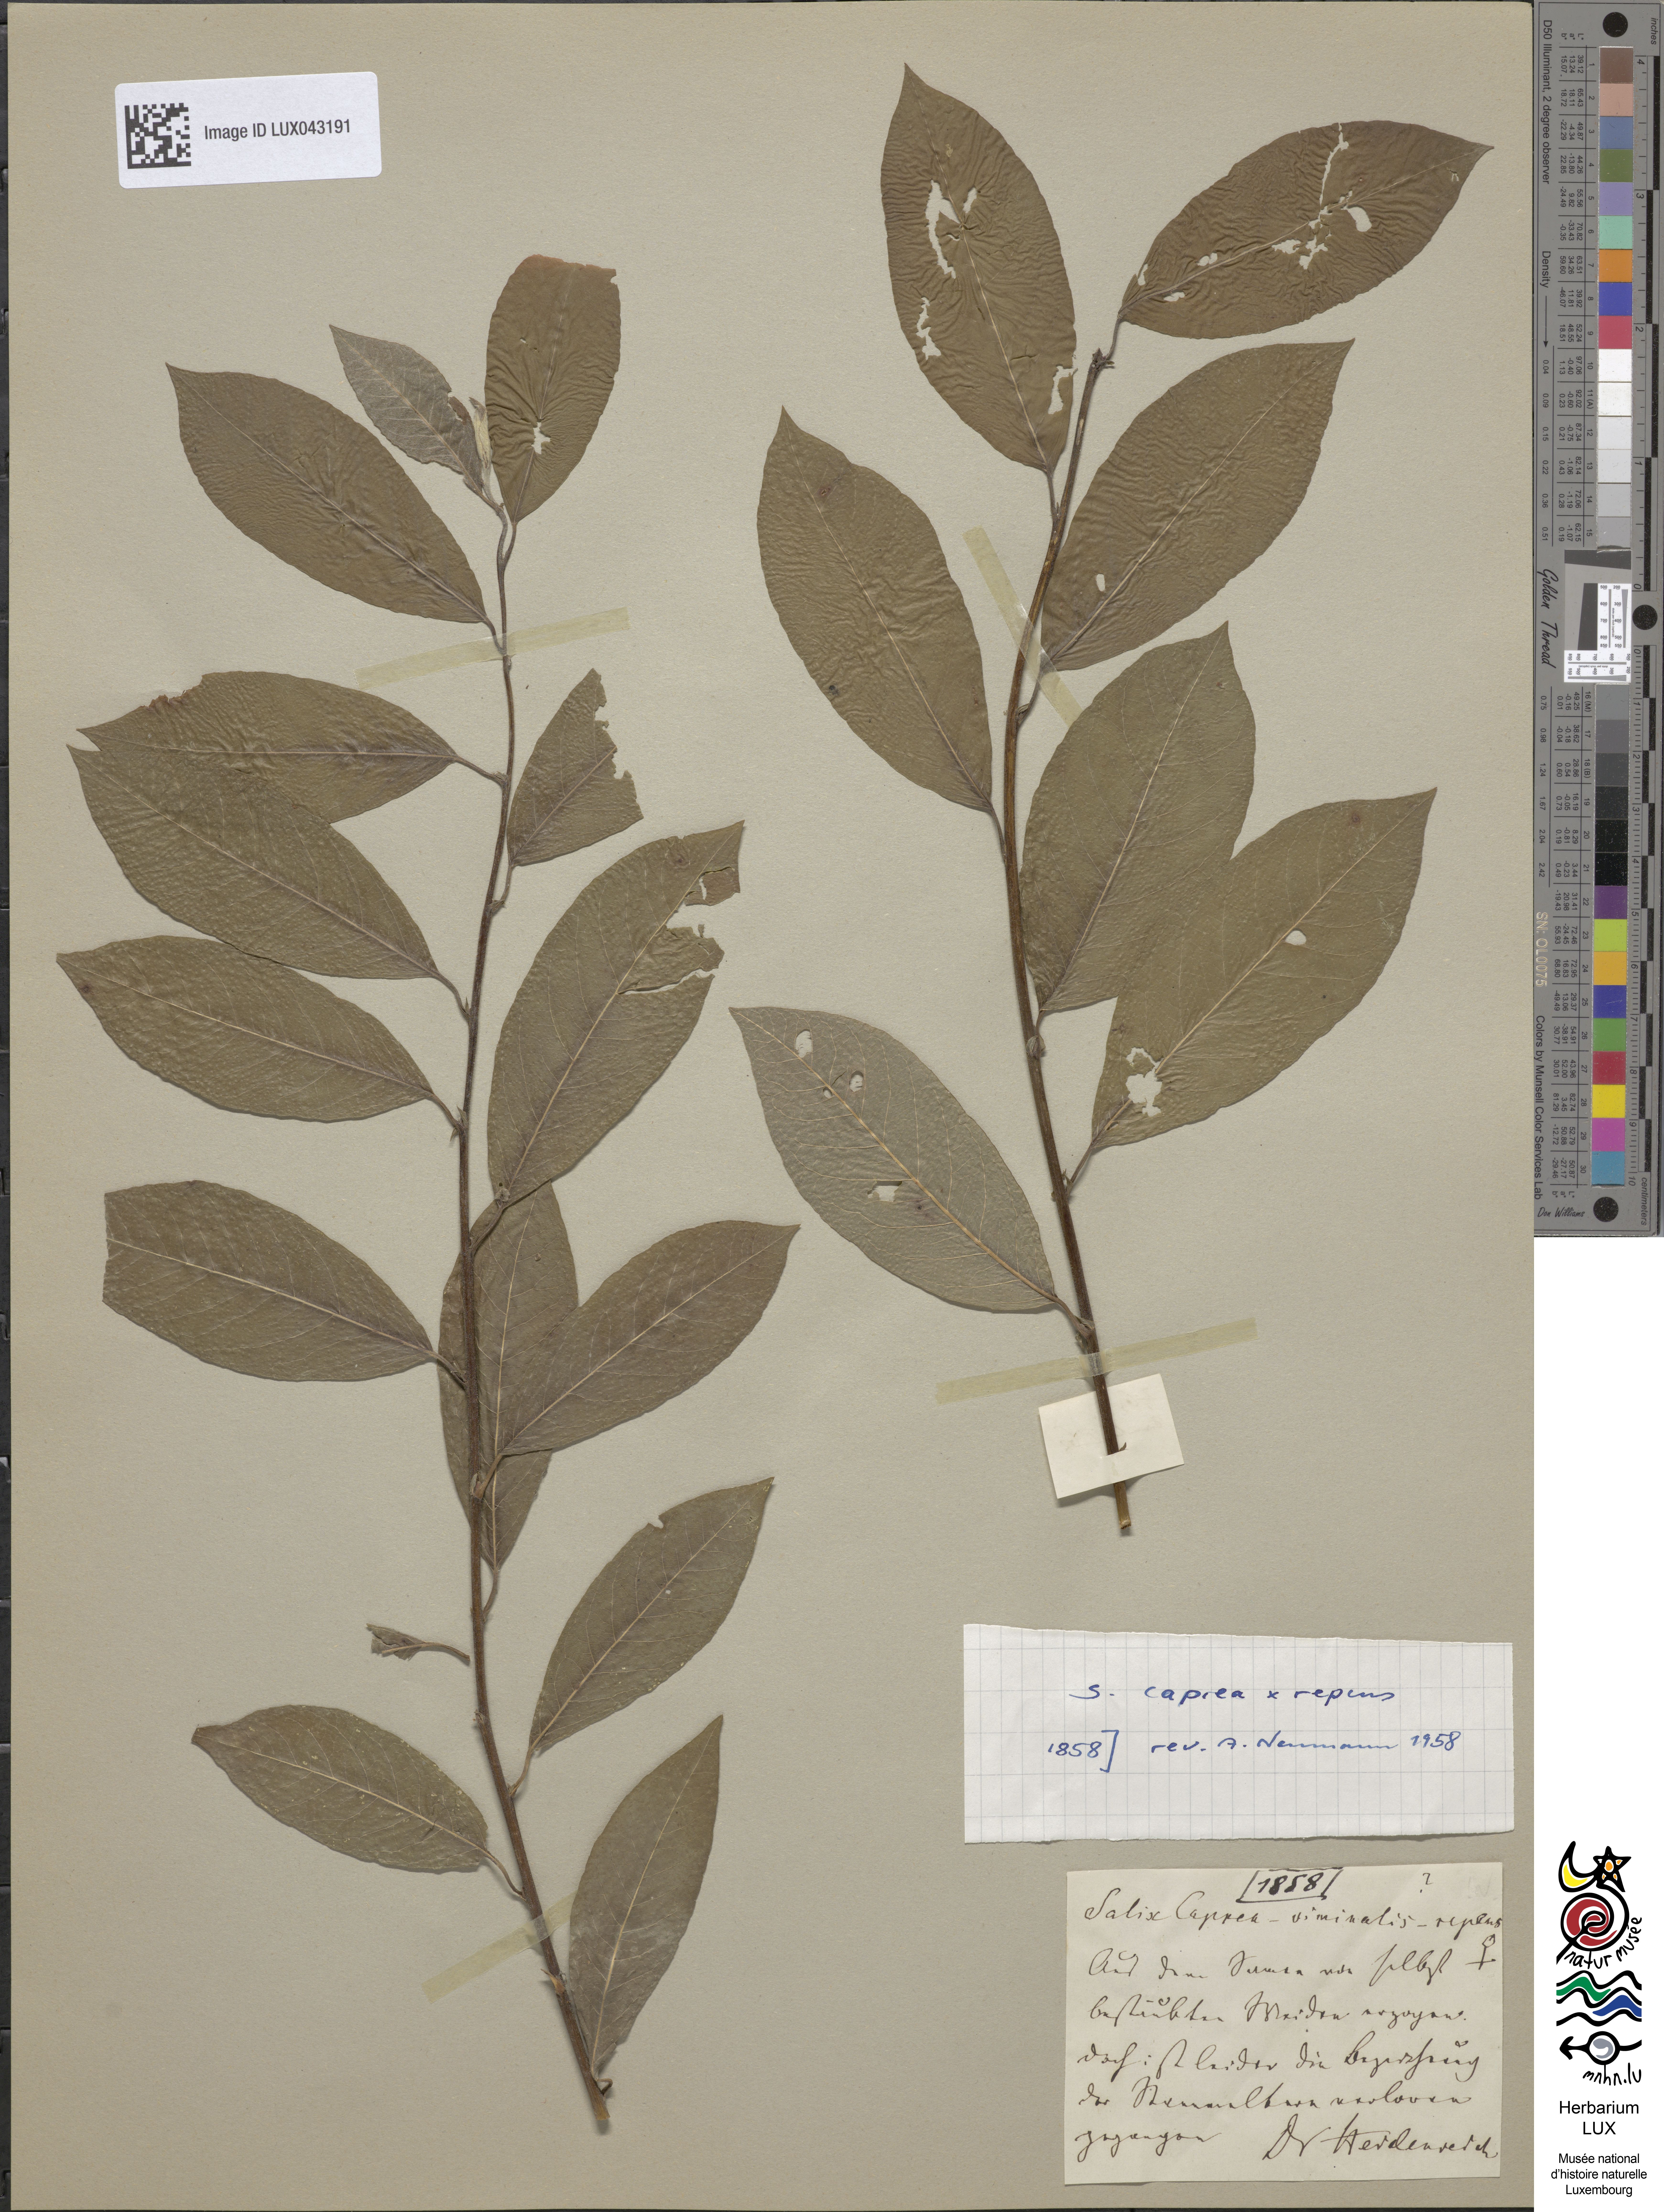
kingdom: Plantae
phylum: Tracheophyta
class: Magnoliopsida
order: Malpighiales
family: Salicaceae
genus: Salix
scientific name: Salix
